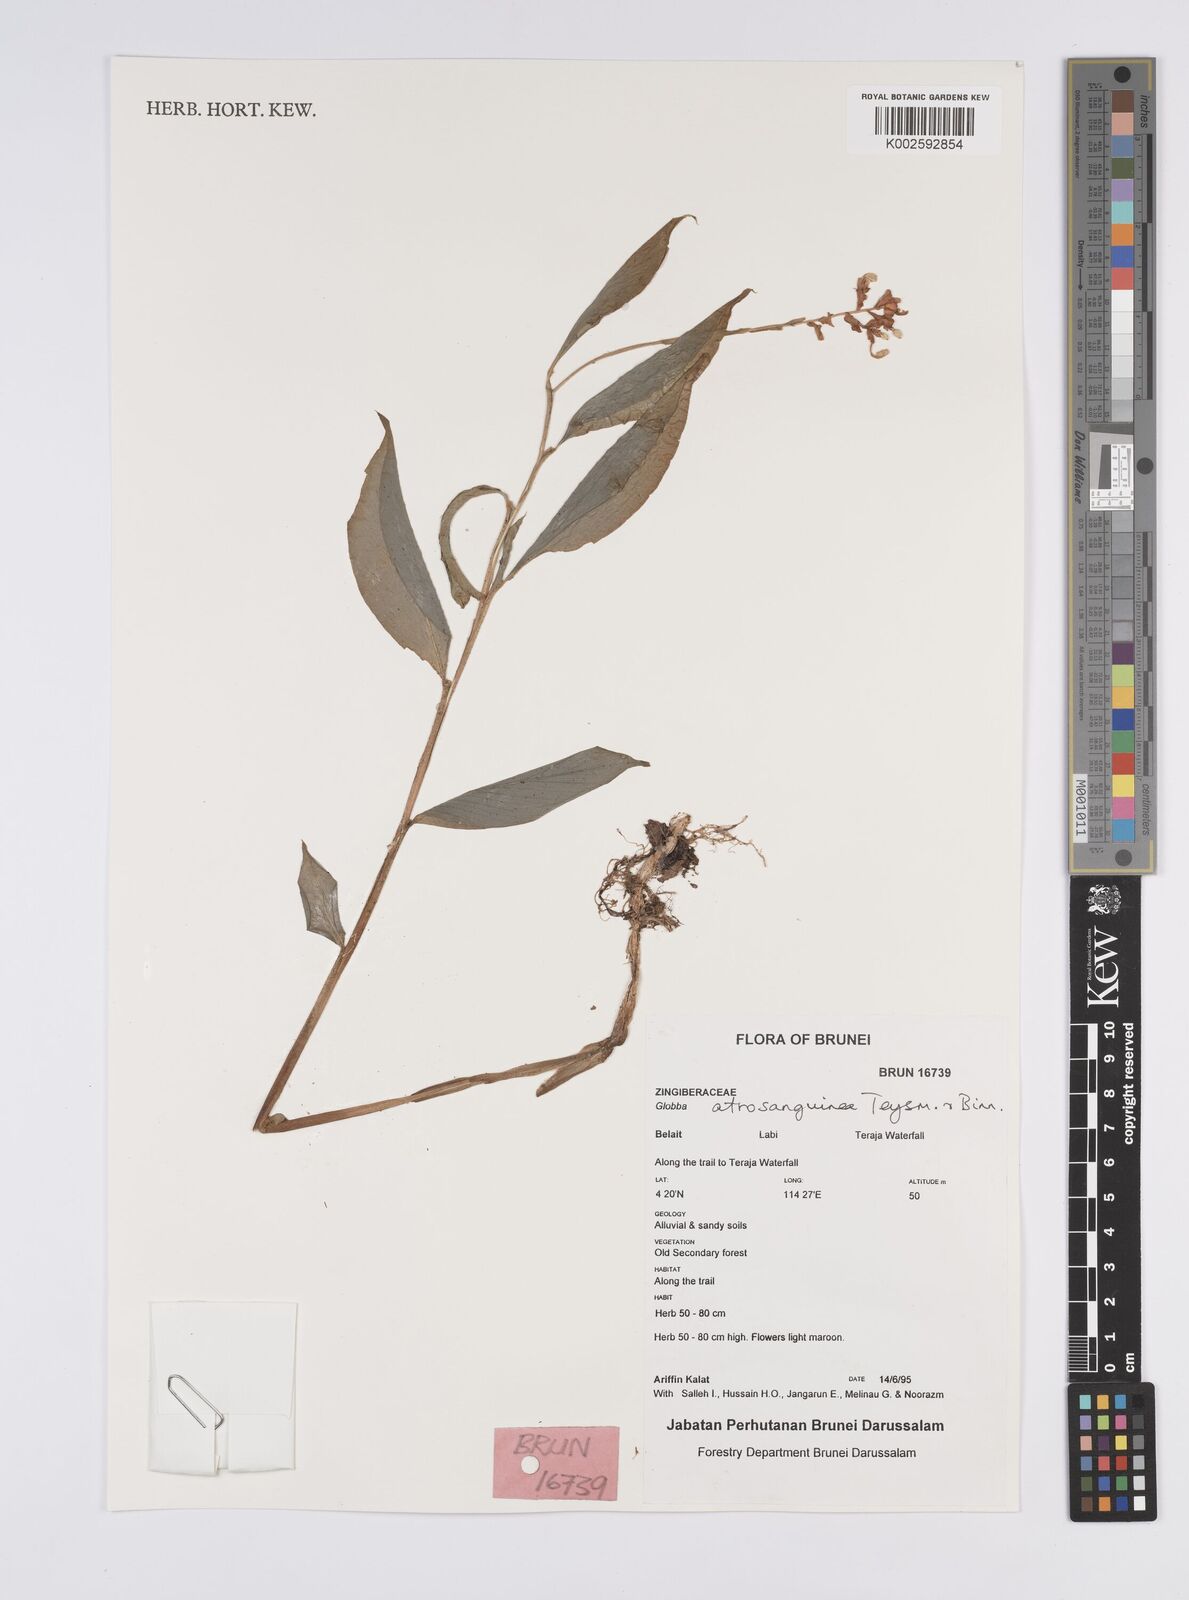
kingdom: Plantae
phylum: Tracheophyta
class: Liliopsida
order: Zingiberales
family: Zingiberaceae
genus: Globba
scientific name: Globba atrosanguinea
